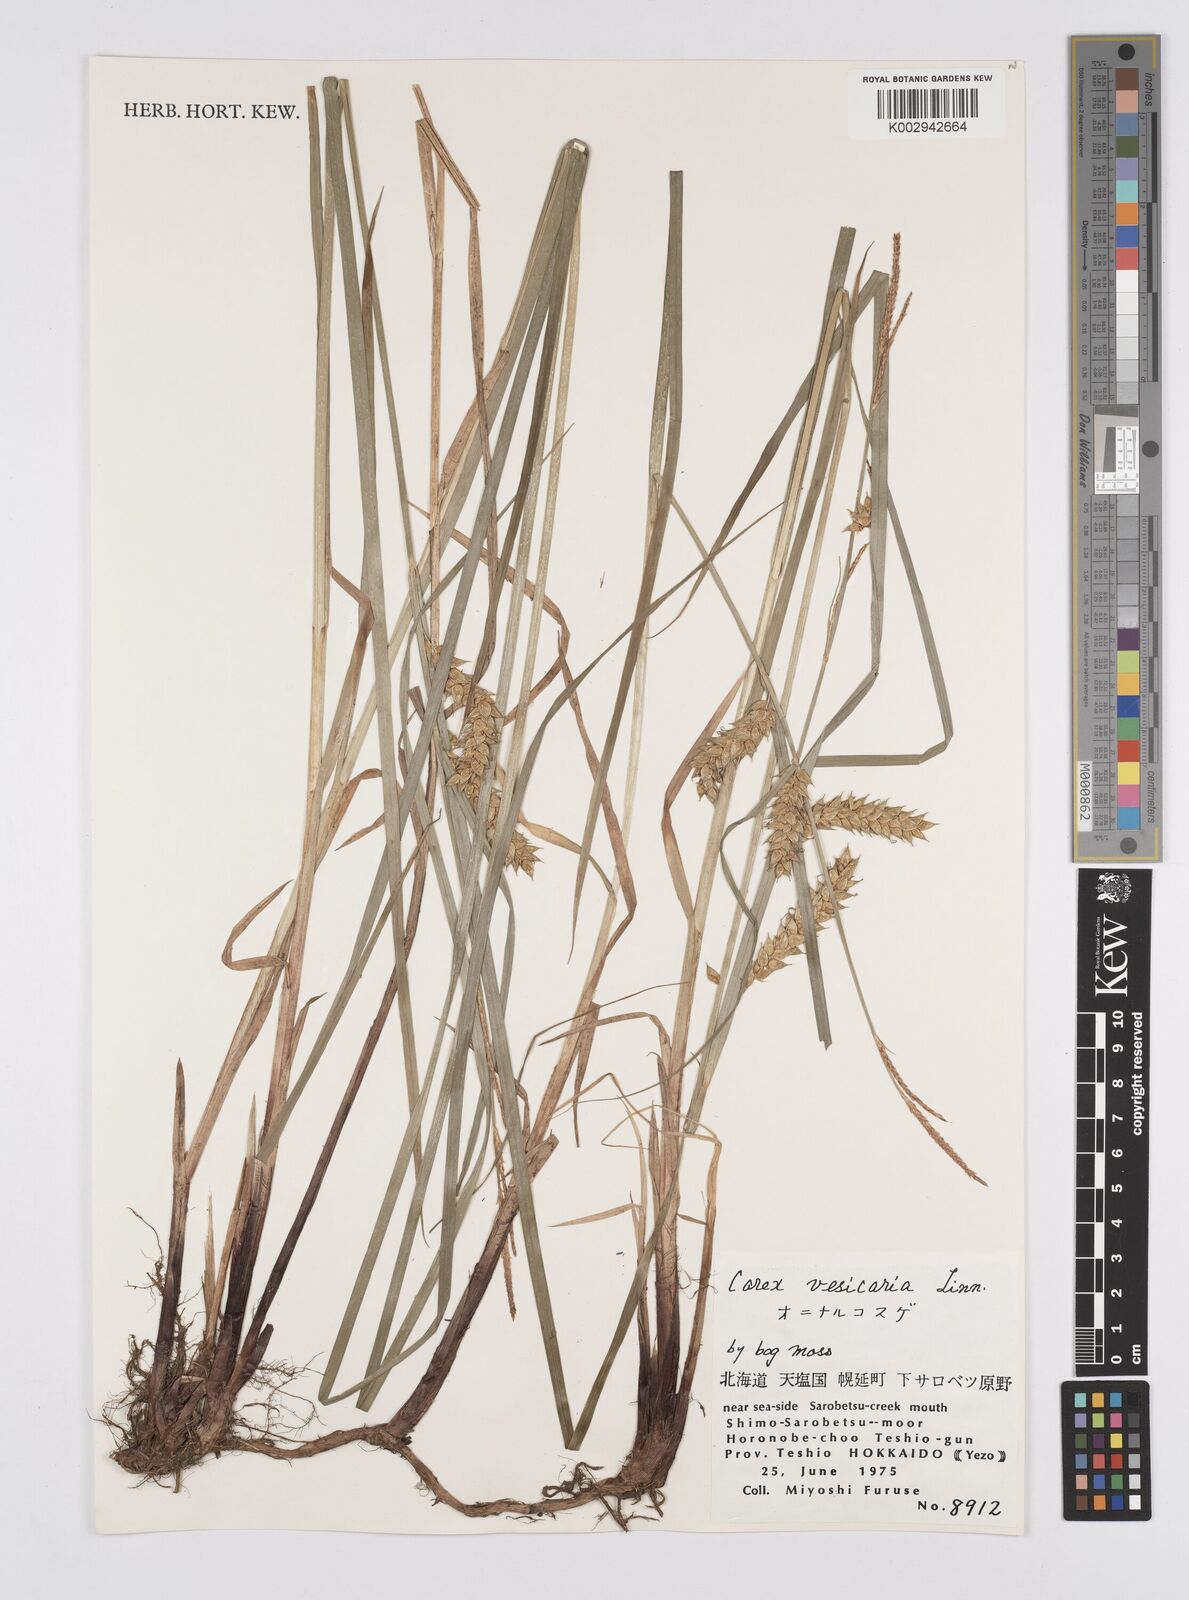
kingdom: Plantae
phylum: Tracheophyta
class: Liliopsida
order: Poales
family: Cyperaceae
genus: Carex
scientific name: Carex vesicaria
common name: Bladder-sedge
